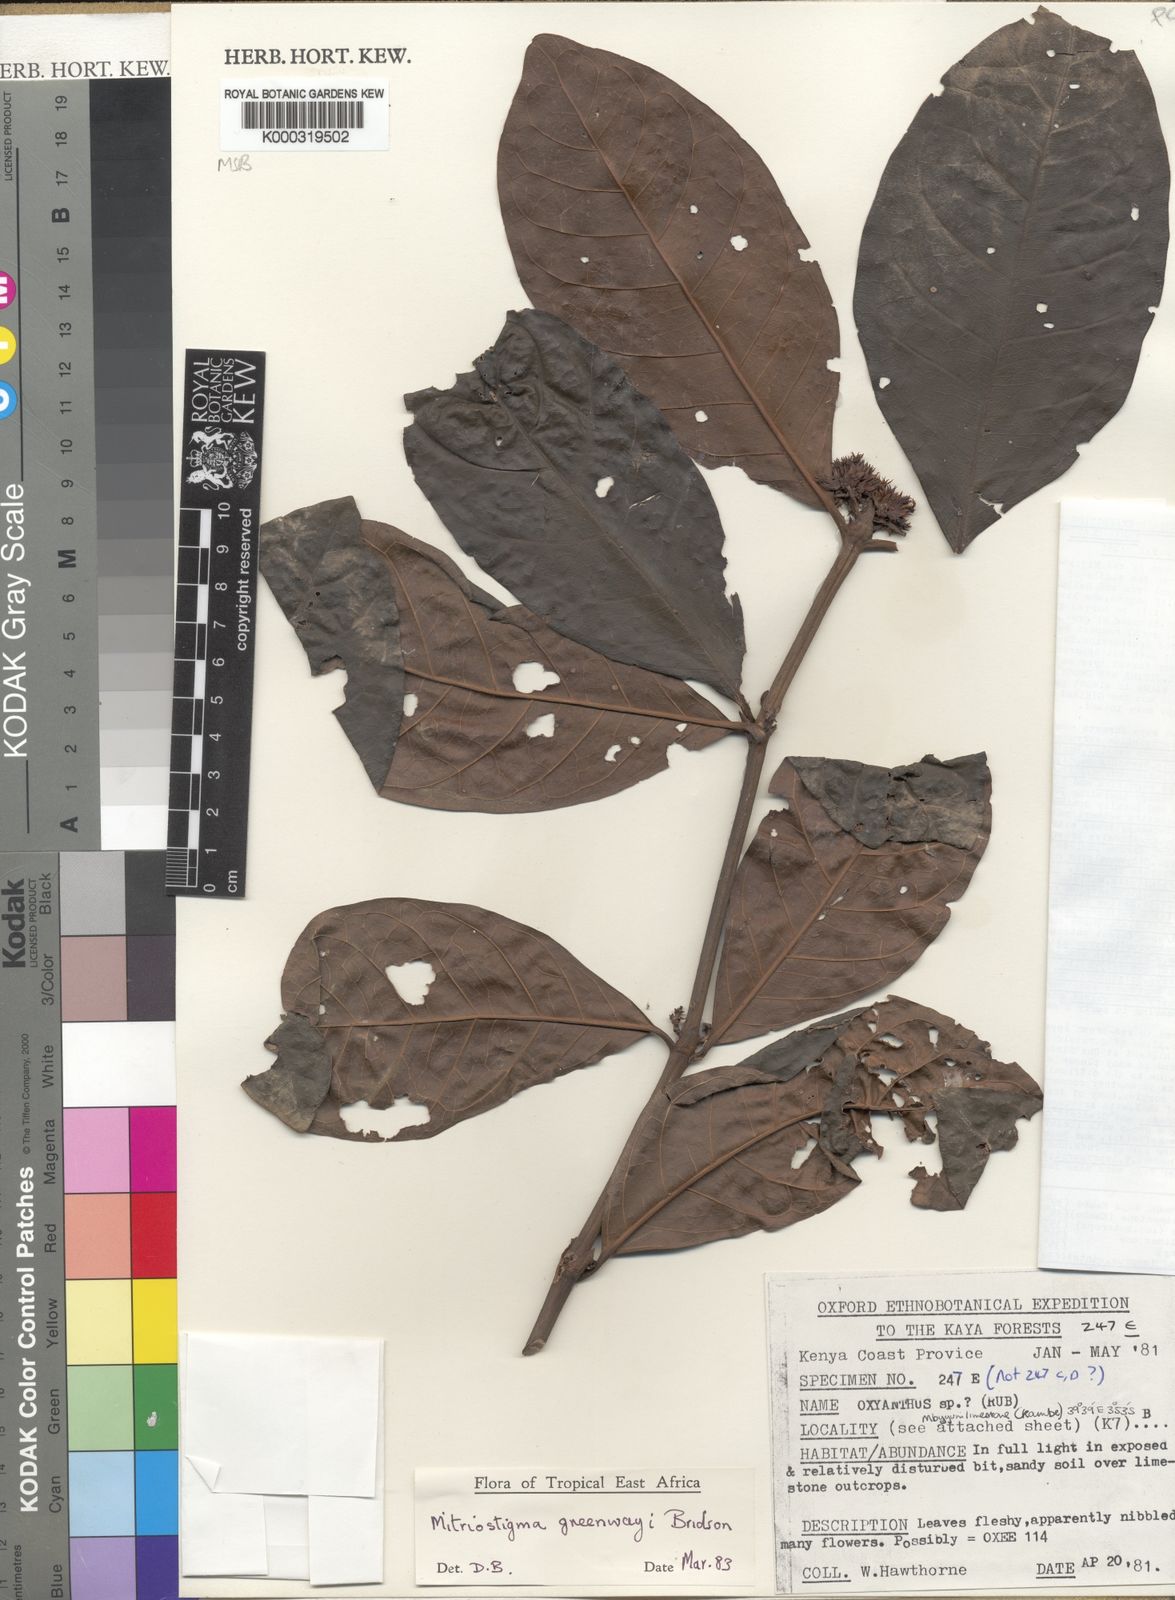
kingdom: Plantae
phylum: Tracheophyta
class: Magnoliopsida
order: Gentianales
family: Rubiaceae
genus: Mitriostigma
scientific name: Mitriostigma greenwayi
